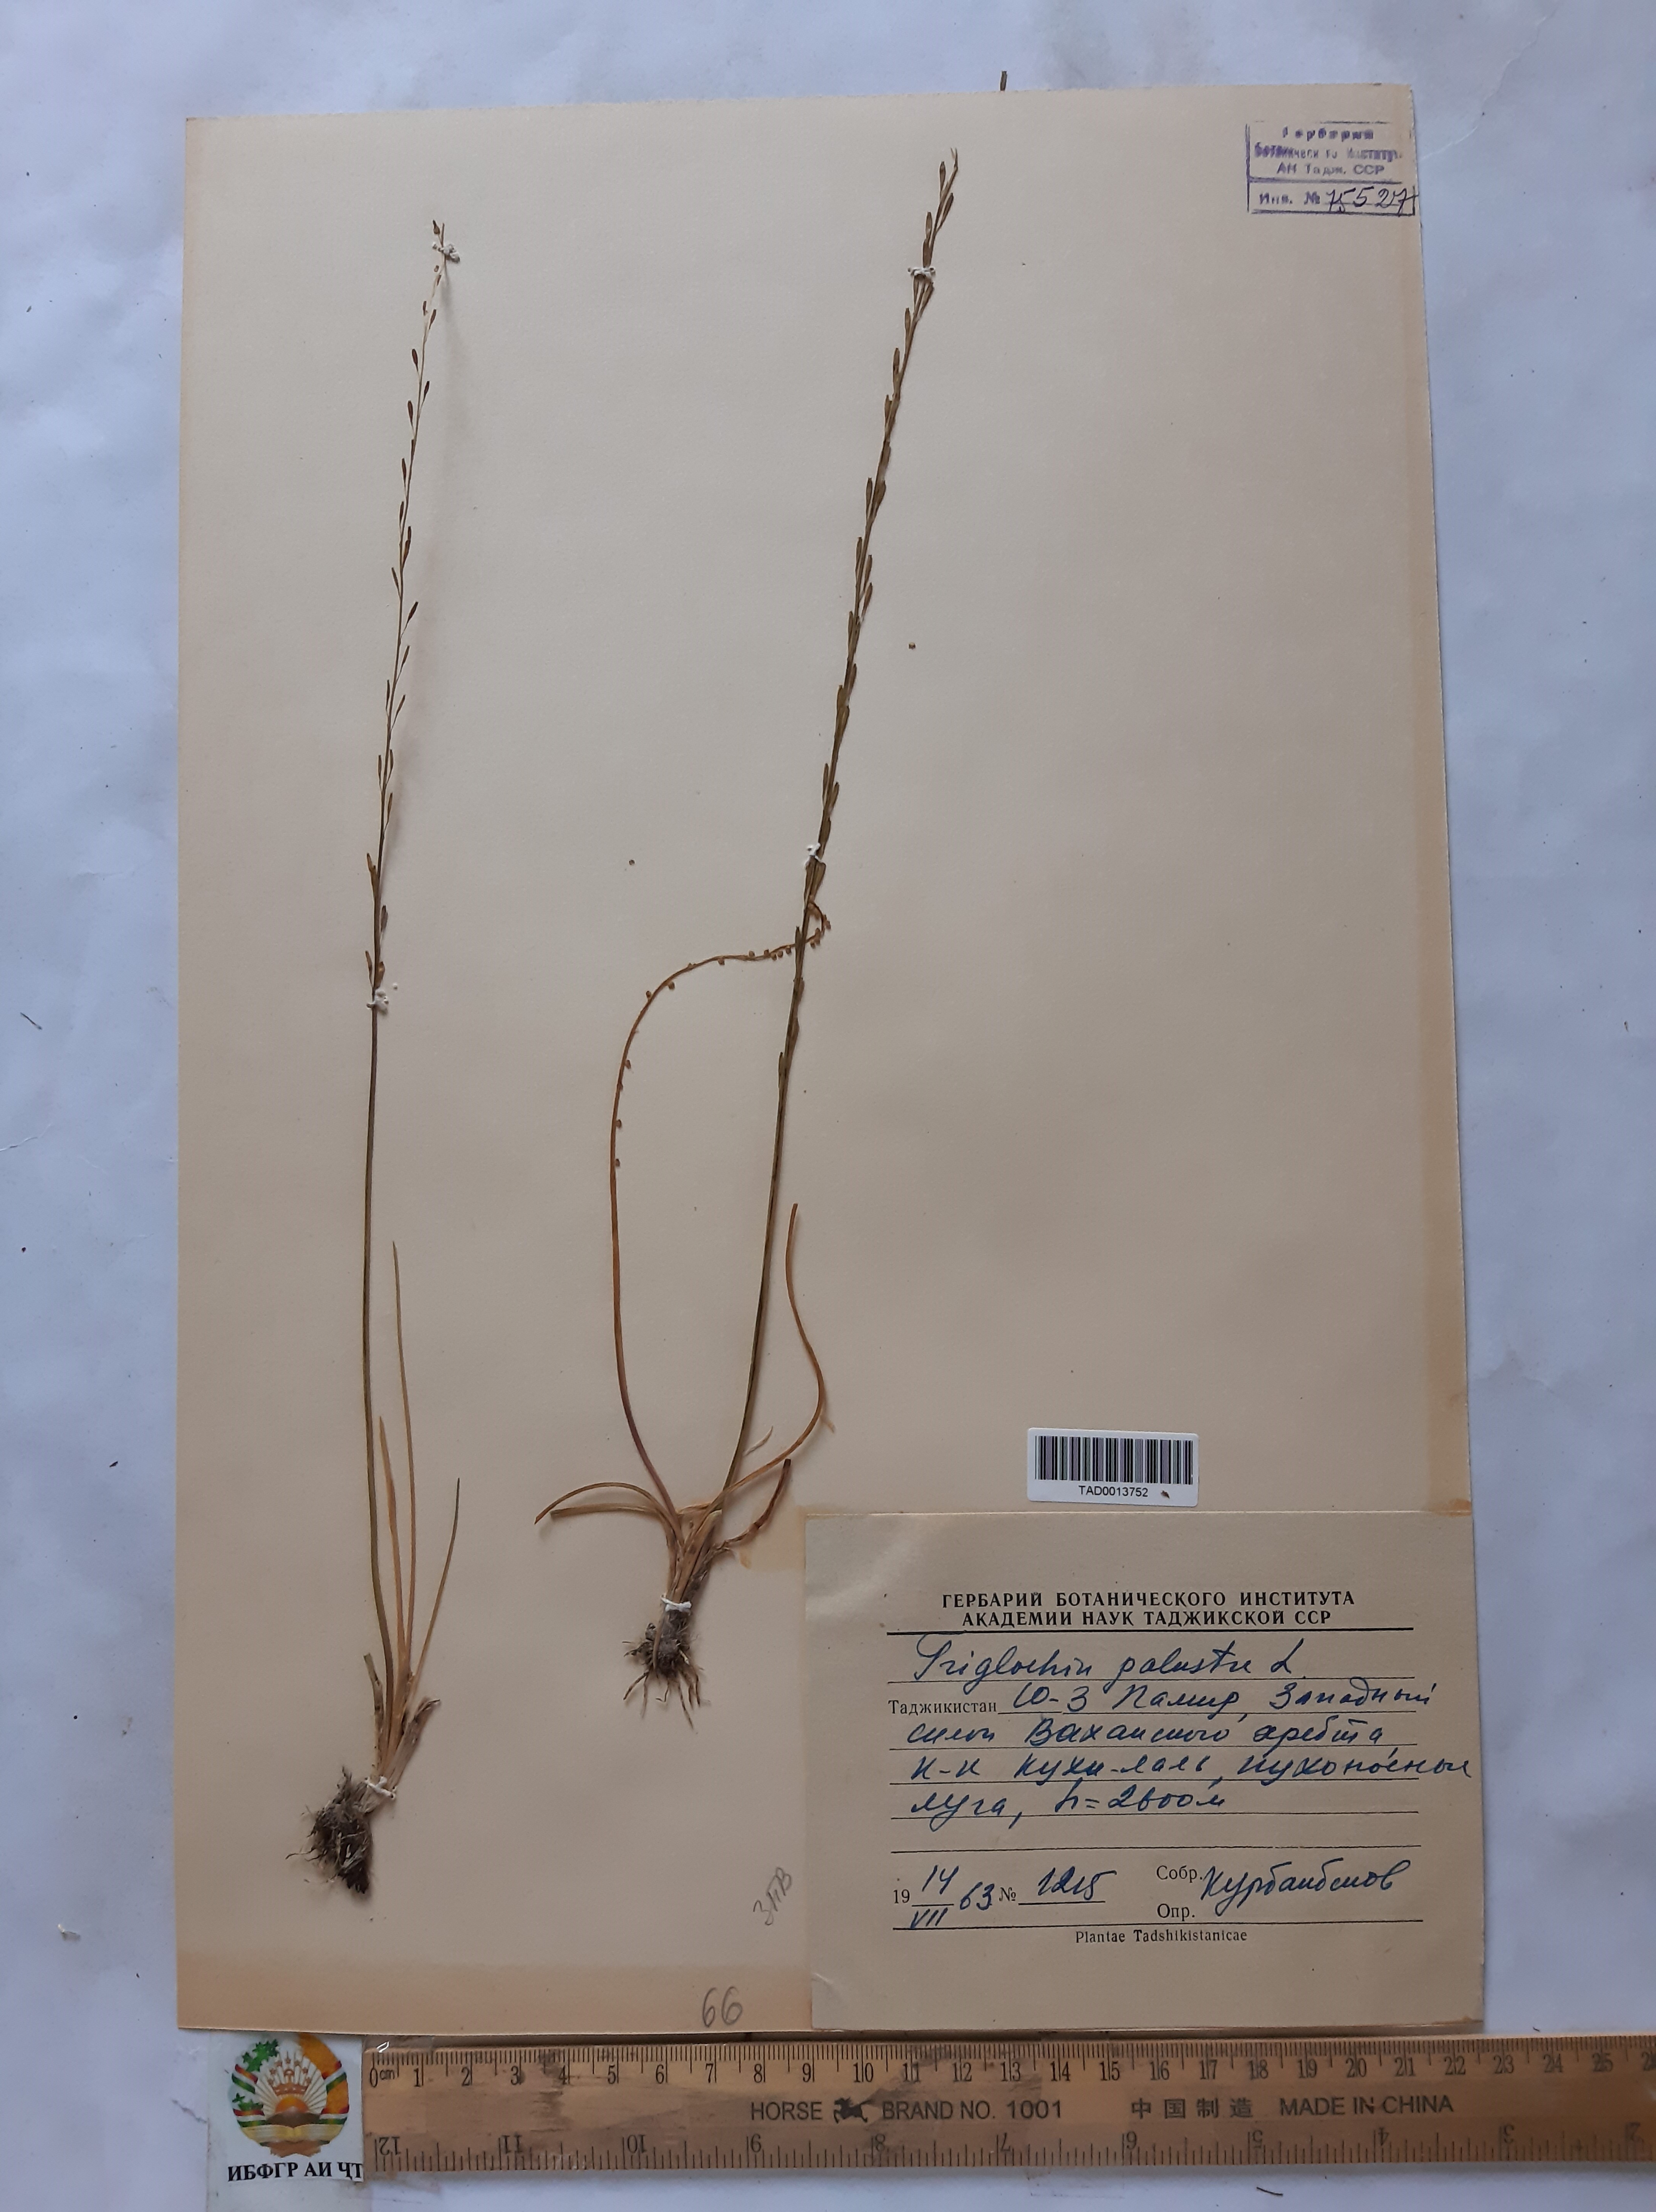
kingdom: Plantae
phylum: Tracheophyta
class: Liliopsida
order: Alismatales
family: Juncaginaceae
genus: Triglochin
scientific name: Triglochin palustris
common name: Marsh arrowgrass
